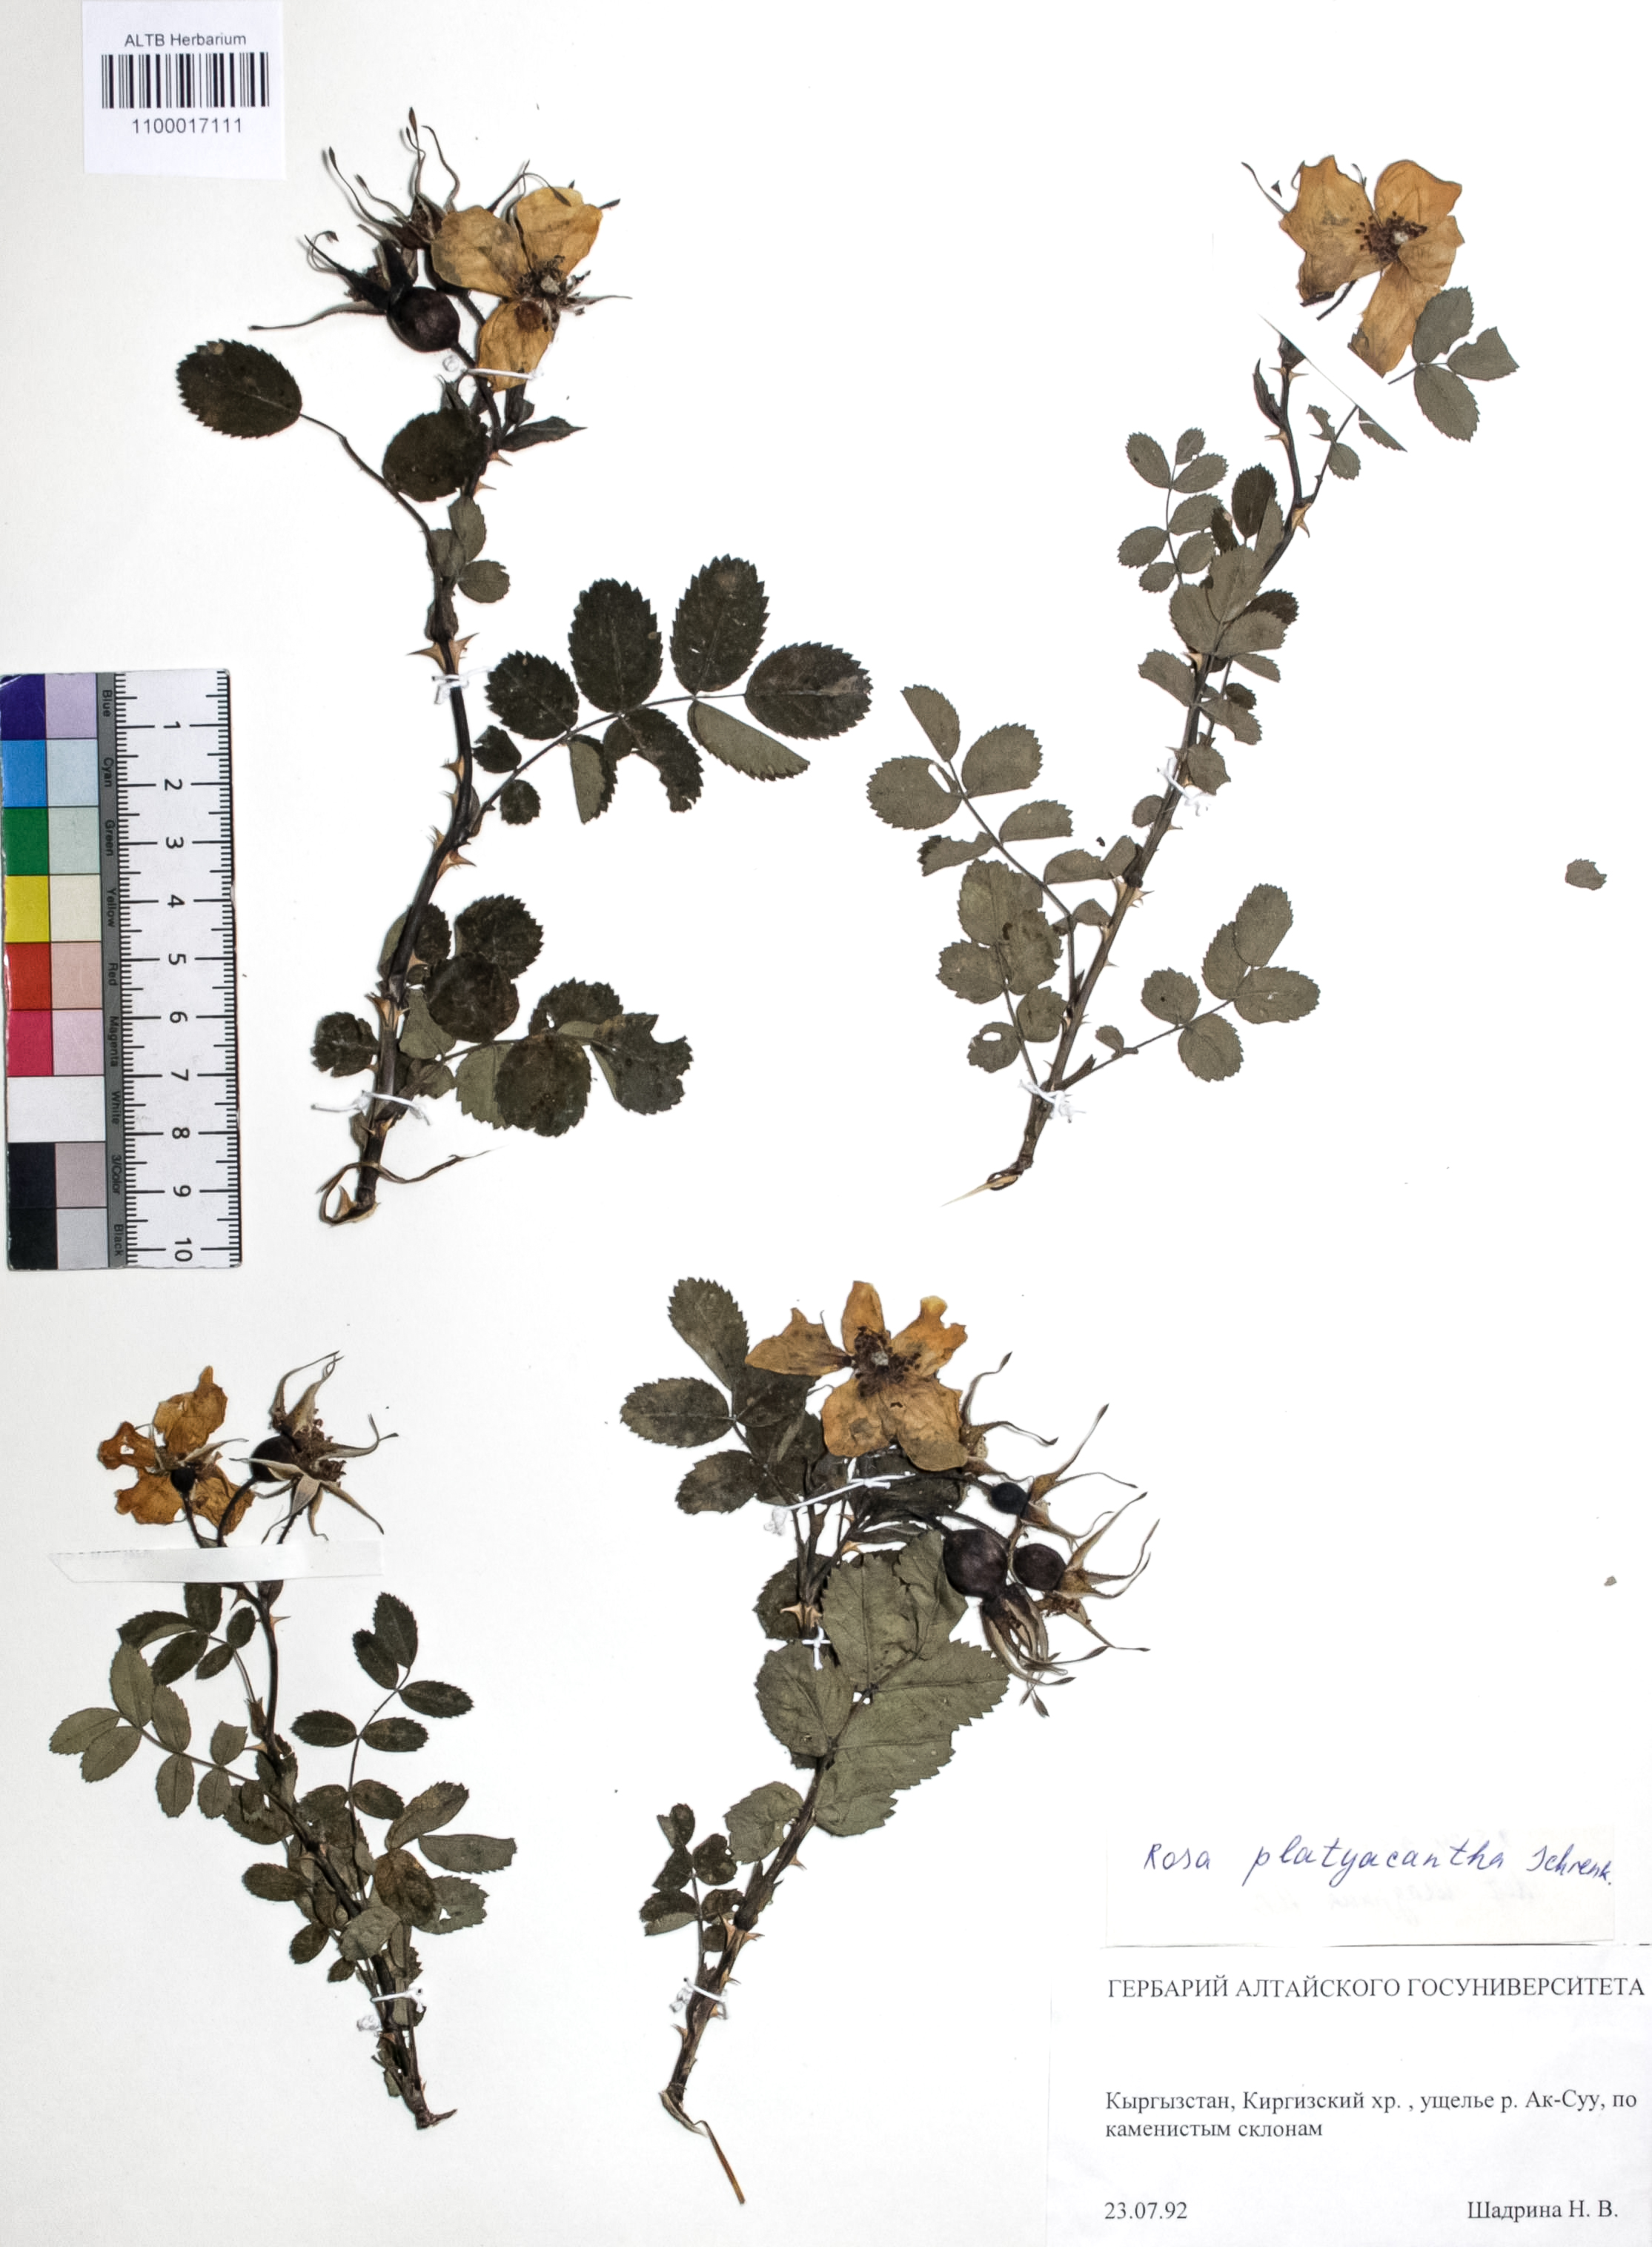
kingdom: Plantae
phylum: Tracheophyta
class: Magnoliopsida
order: Rosales
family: Rosaceae
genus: Rosa
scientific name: Rosa platyacantha
